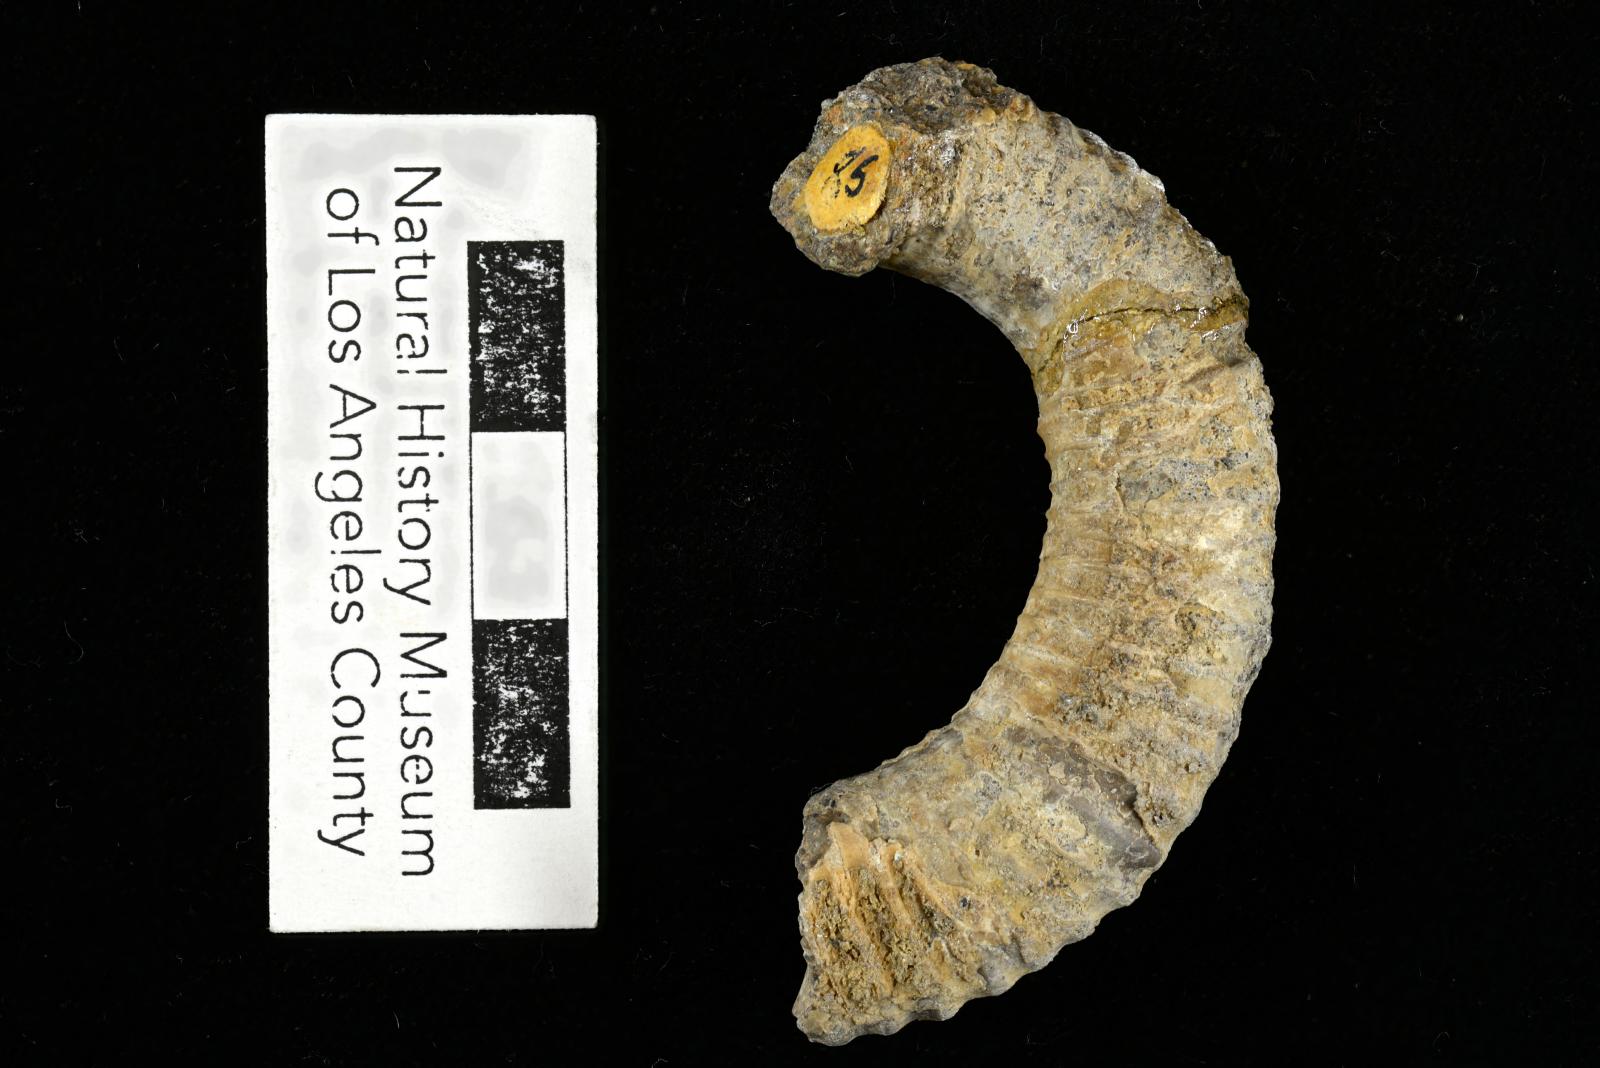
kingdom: Animalia
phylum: Mollusca
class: Cephalopoda
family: Nostoceratidae
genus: Nostoceras
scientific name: Nostoceras
